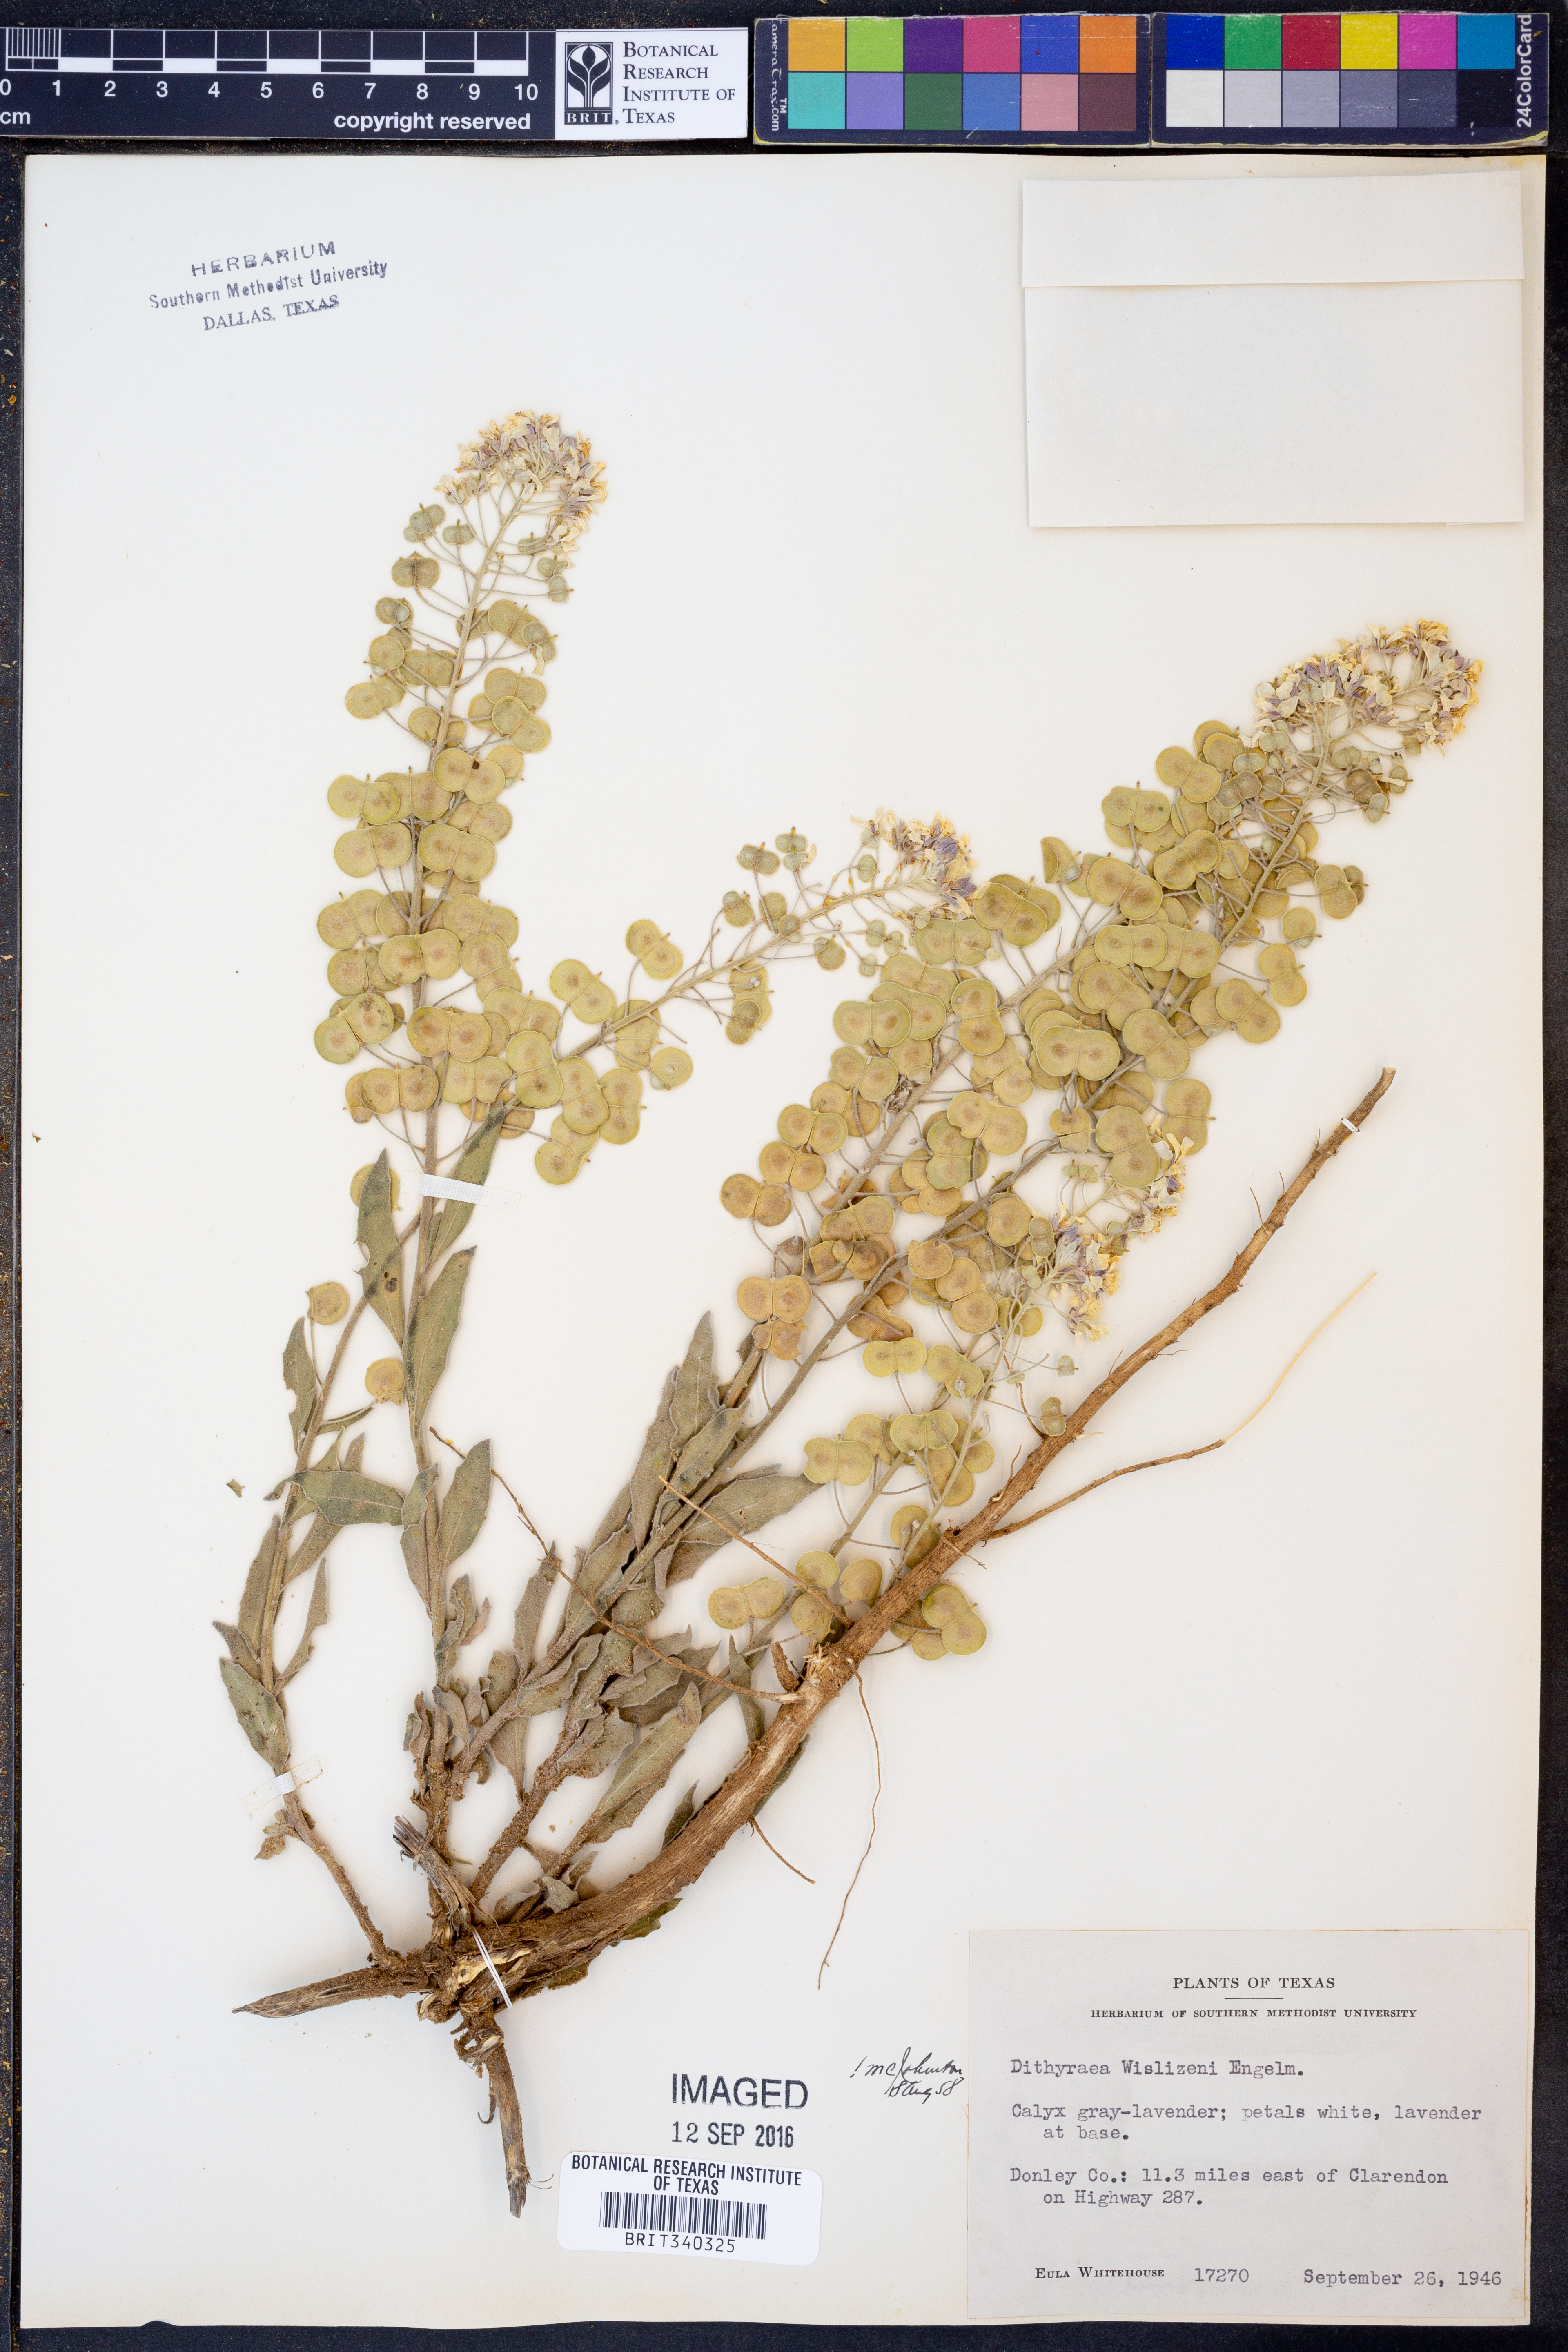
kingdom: Plantae
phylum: Tracheophyta
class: Magnoliopsida
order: Brassicales
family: Brassicaceae
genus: Dimorphocarpa
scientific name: Dimorphocarpa wislizenii
